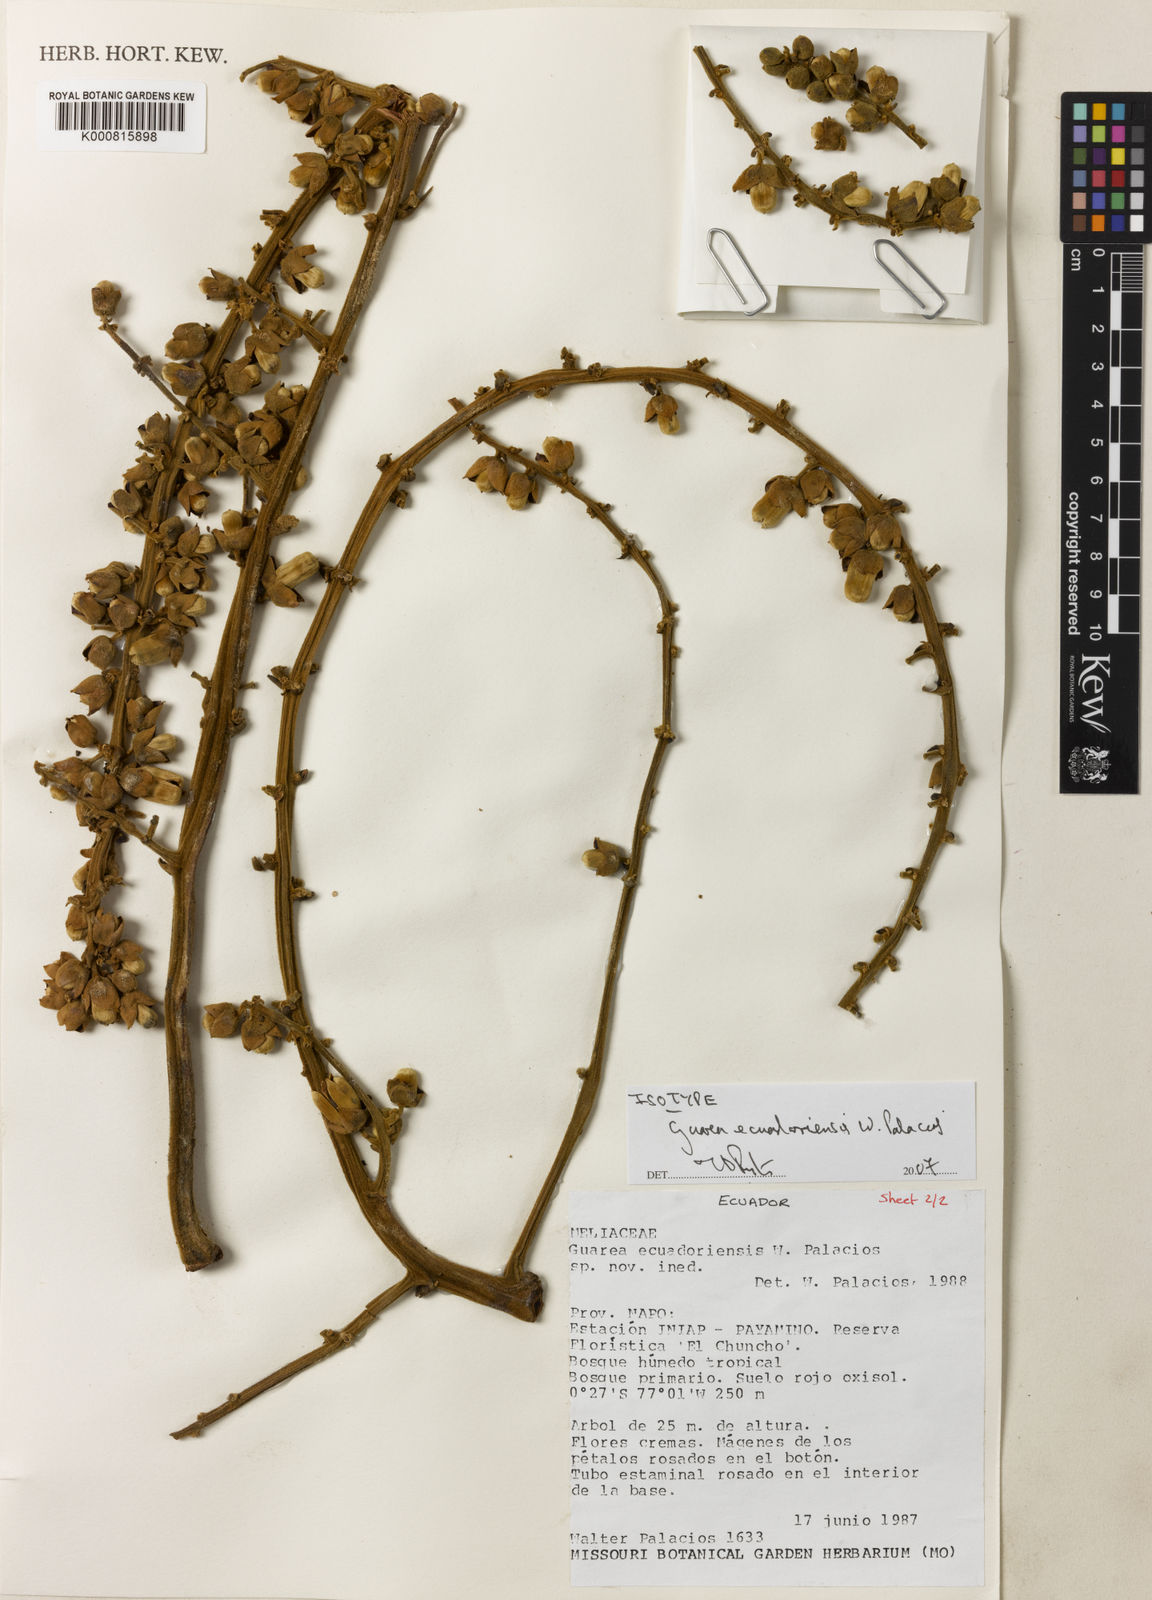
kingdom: Plantae
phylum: Tracheophyta
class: Magnoliopsida
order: Sapindales
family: Meliaceae
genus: Guarea
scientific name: Guarea ecuadoriensis
